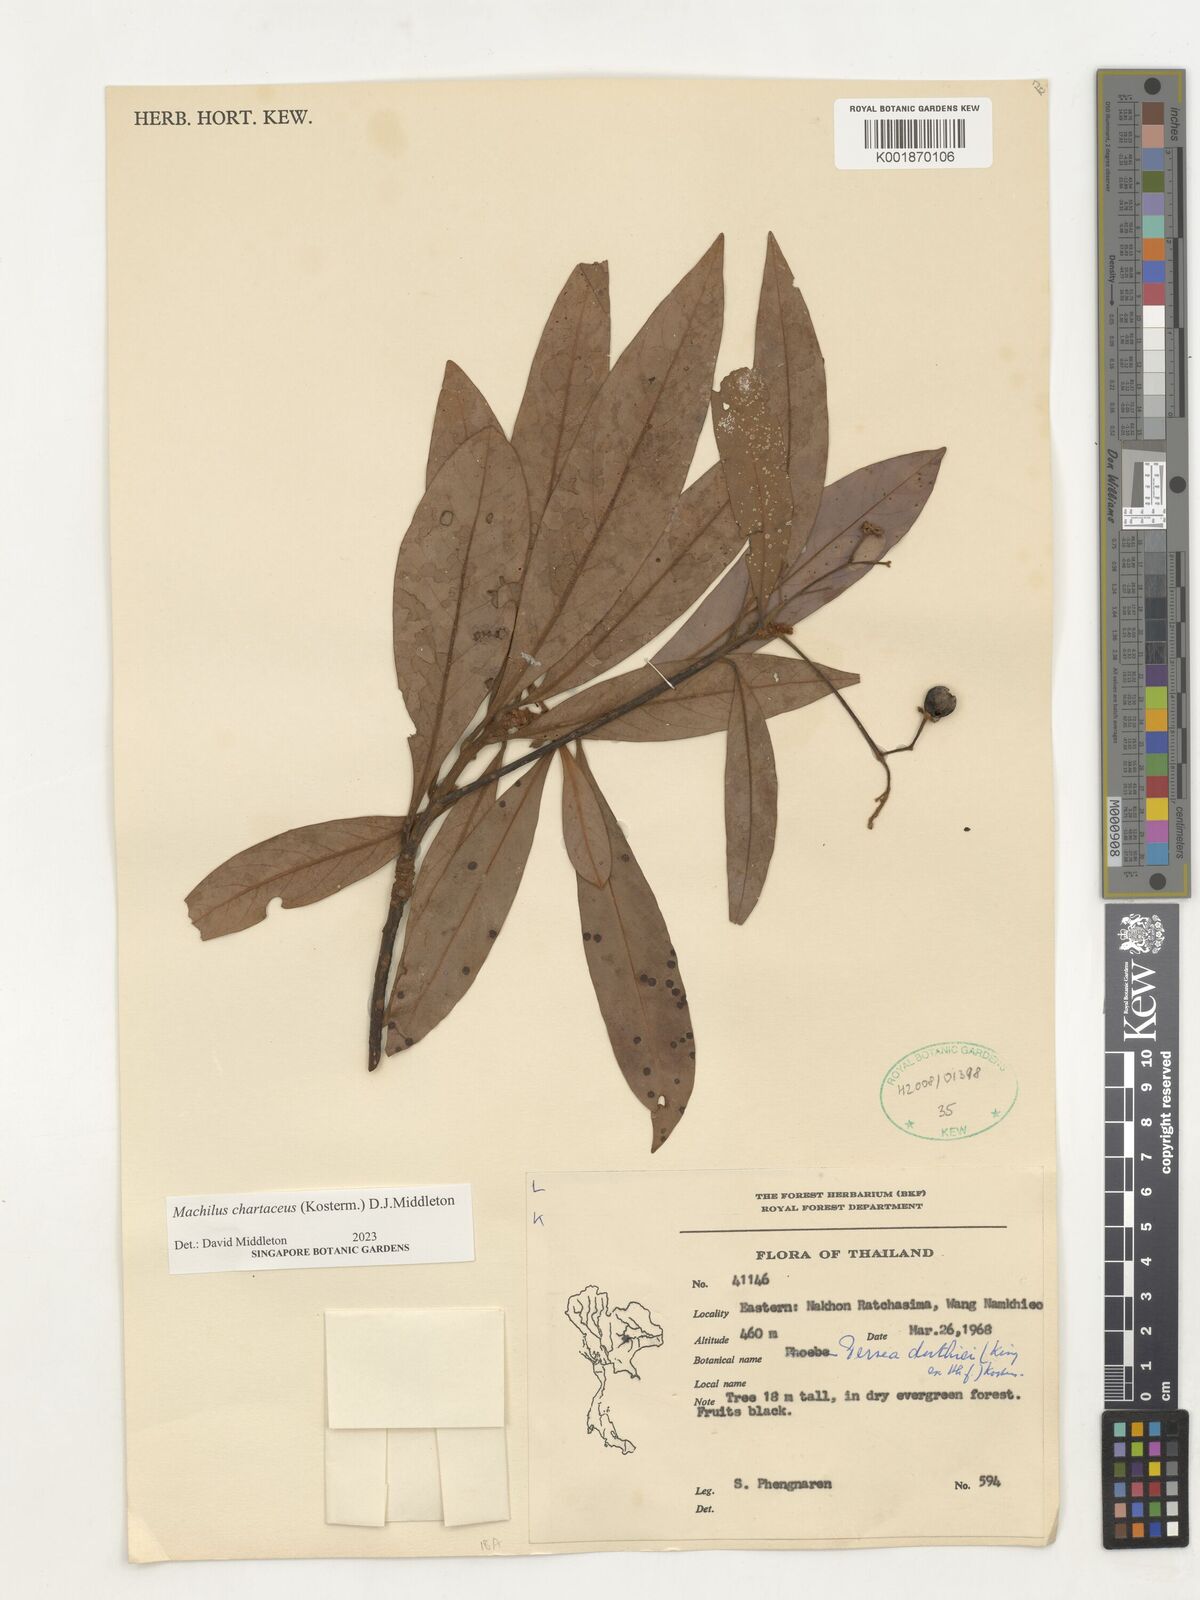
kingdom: Plantae
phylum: Tracheophyta
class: Magnoliopsida
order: Laurales
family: Lauraceae
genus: Machilus
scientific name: Machilus
